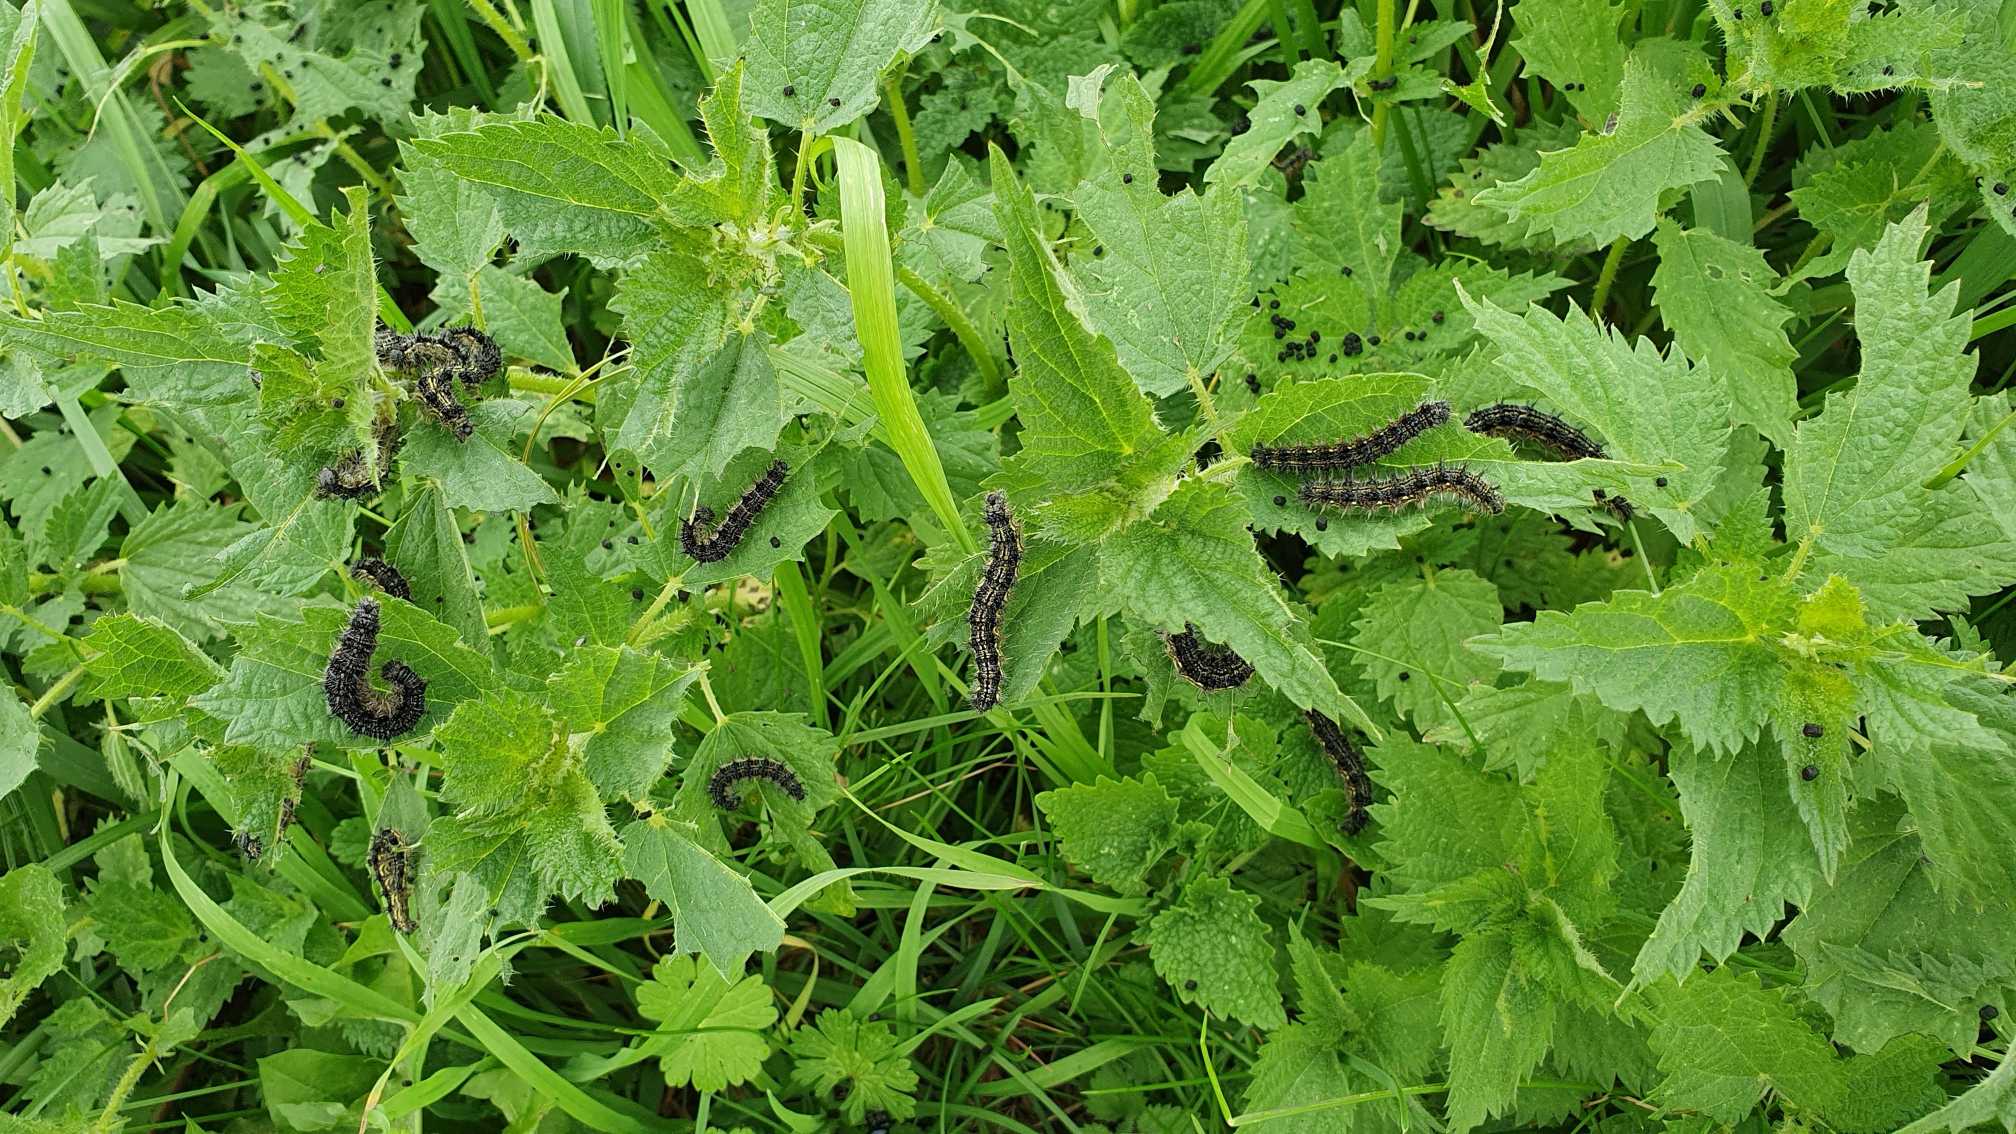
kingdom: Animalia
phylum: Arthropoda
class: Insecta
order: Lepidoptera
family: Nymphalidae
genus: Aglais
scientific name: Aglais urticae
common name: Nældens takvinge
